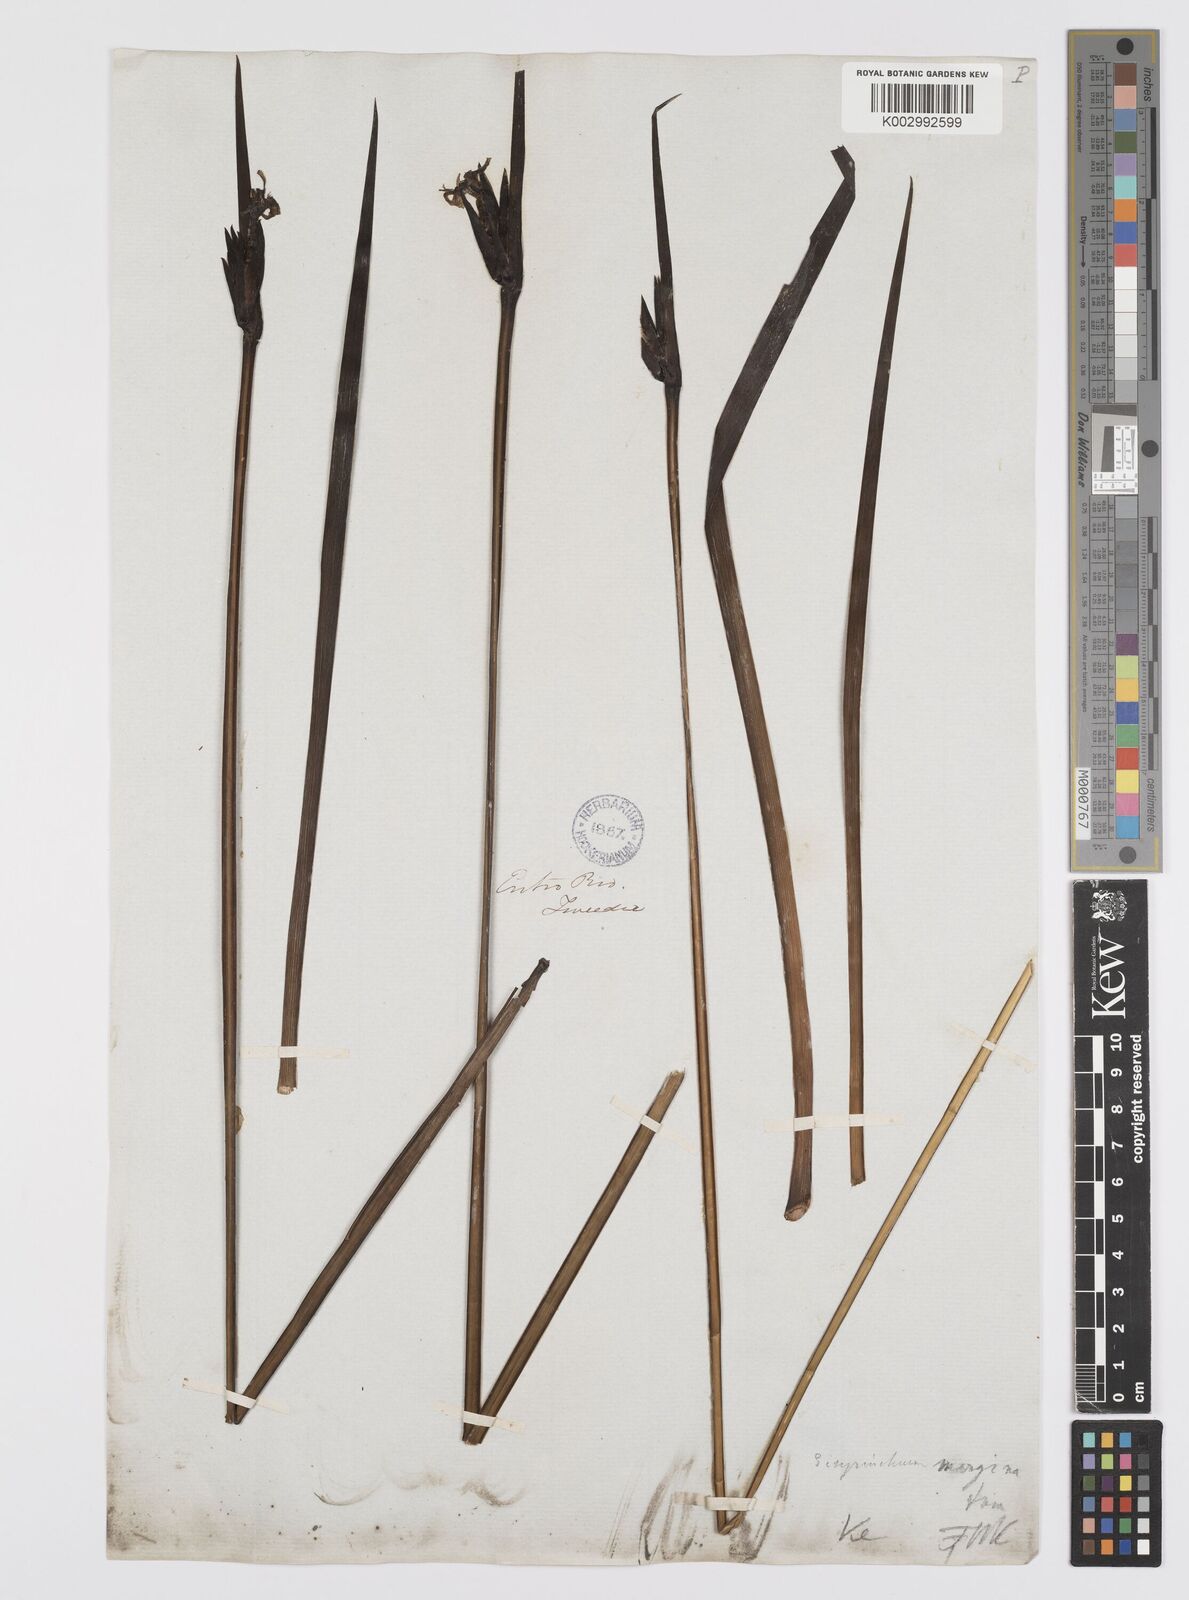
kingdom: Plantae
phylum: Tracheophyta
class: Liliopsida
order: Asparagales
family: Iridaceae
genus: Sisyrinchium
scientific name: Sisyrinchium palmifolium
